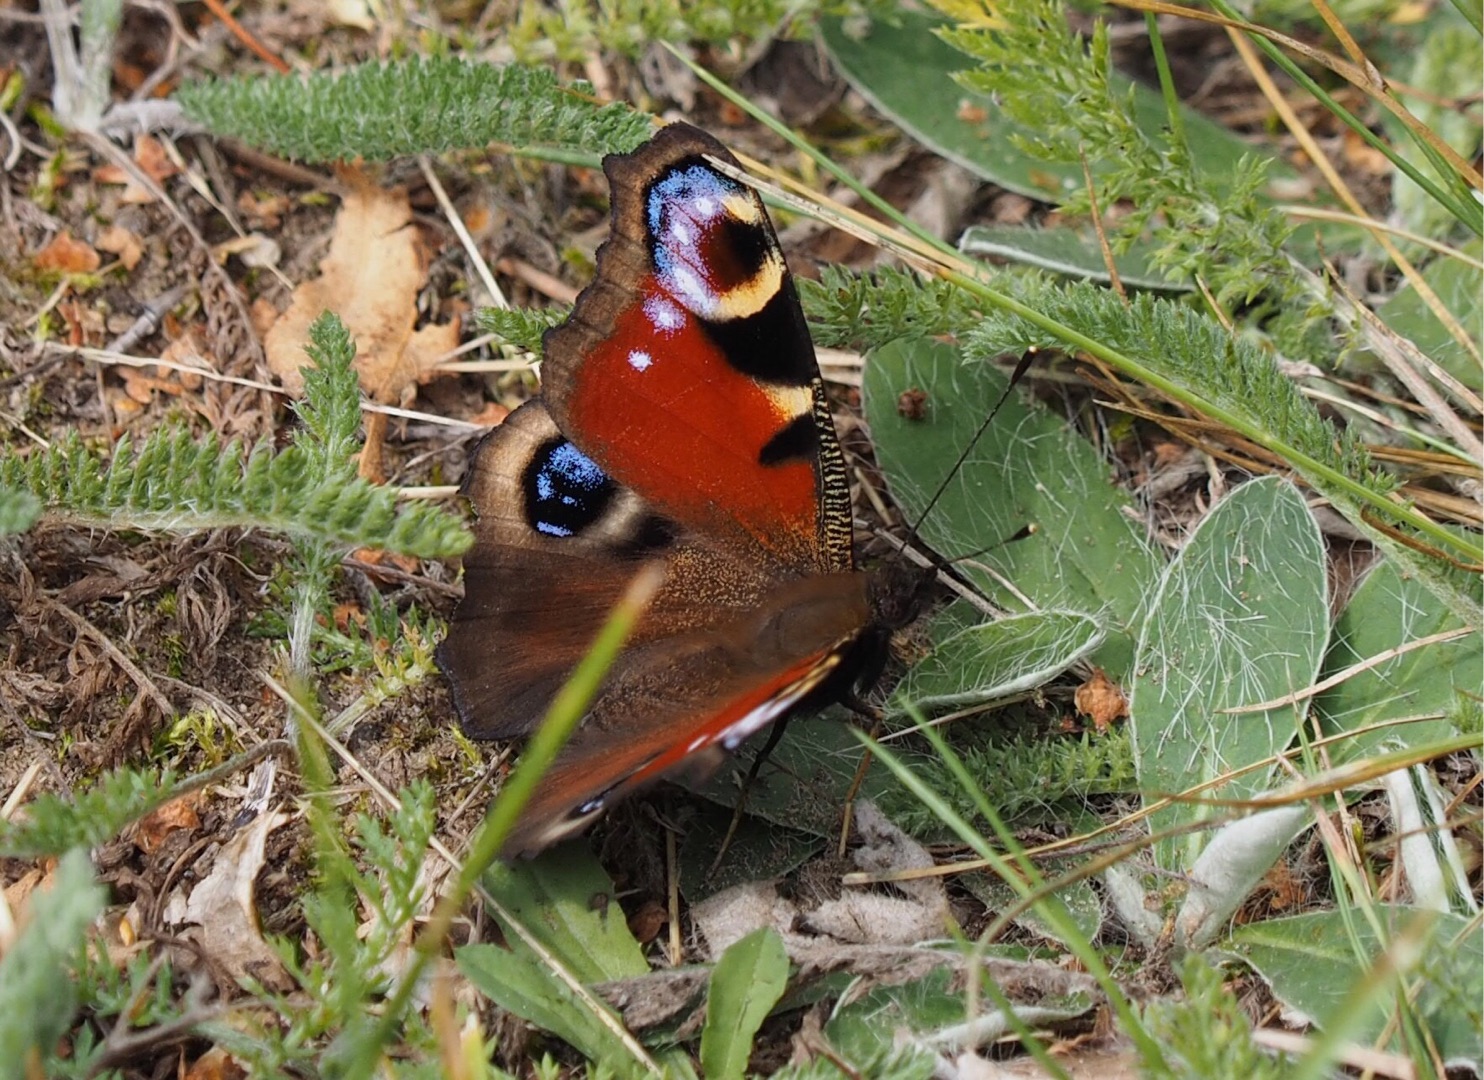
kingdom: Animalia
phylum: Arthropoda
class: Insecta
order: Lepidoptera
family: Nymphalidae
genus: Aglais
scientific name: Aglais io
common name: Dagpåfugleøje
